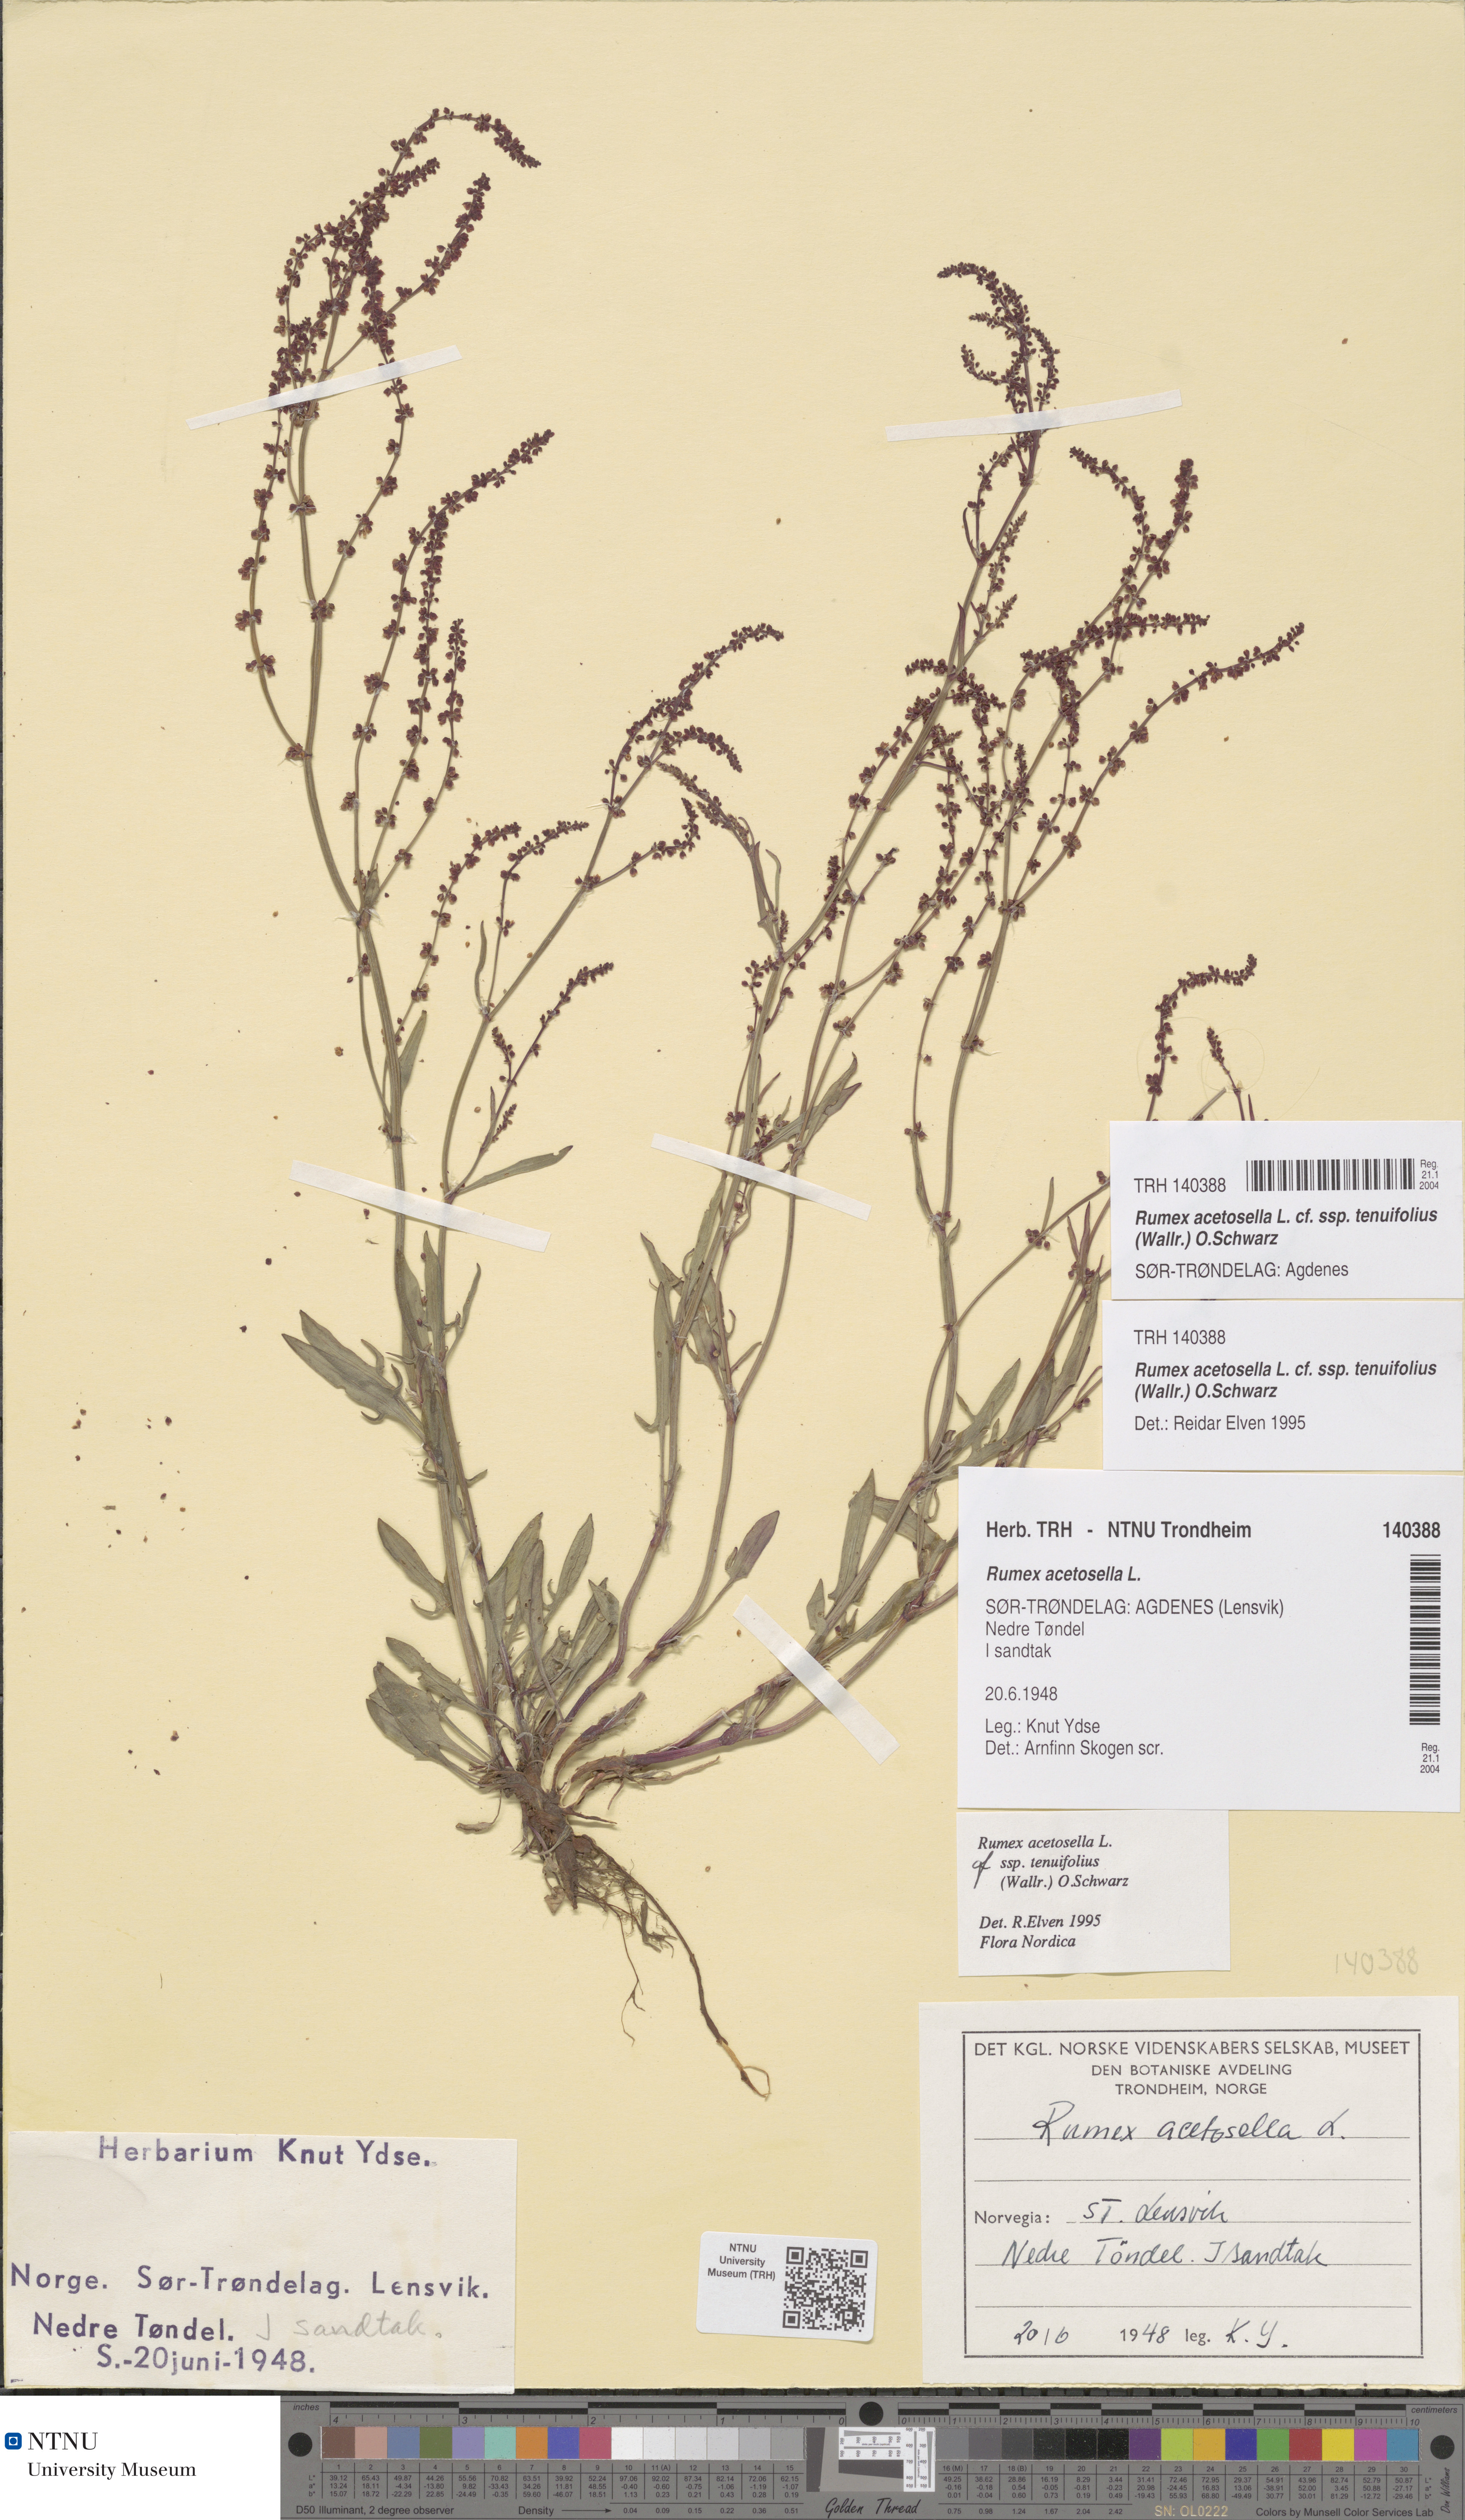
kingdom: Plantae
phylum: Tracheophyta
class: Magnoliopsida
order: Caryophyllales
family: Polygonaceae
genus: Rumex
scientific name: Rumex acetosella
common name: Common sheep sorrel
